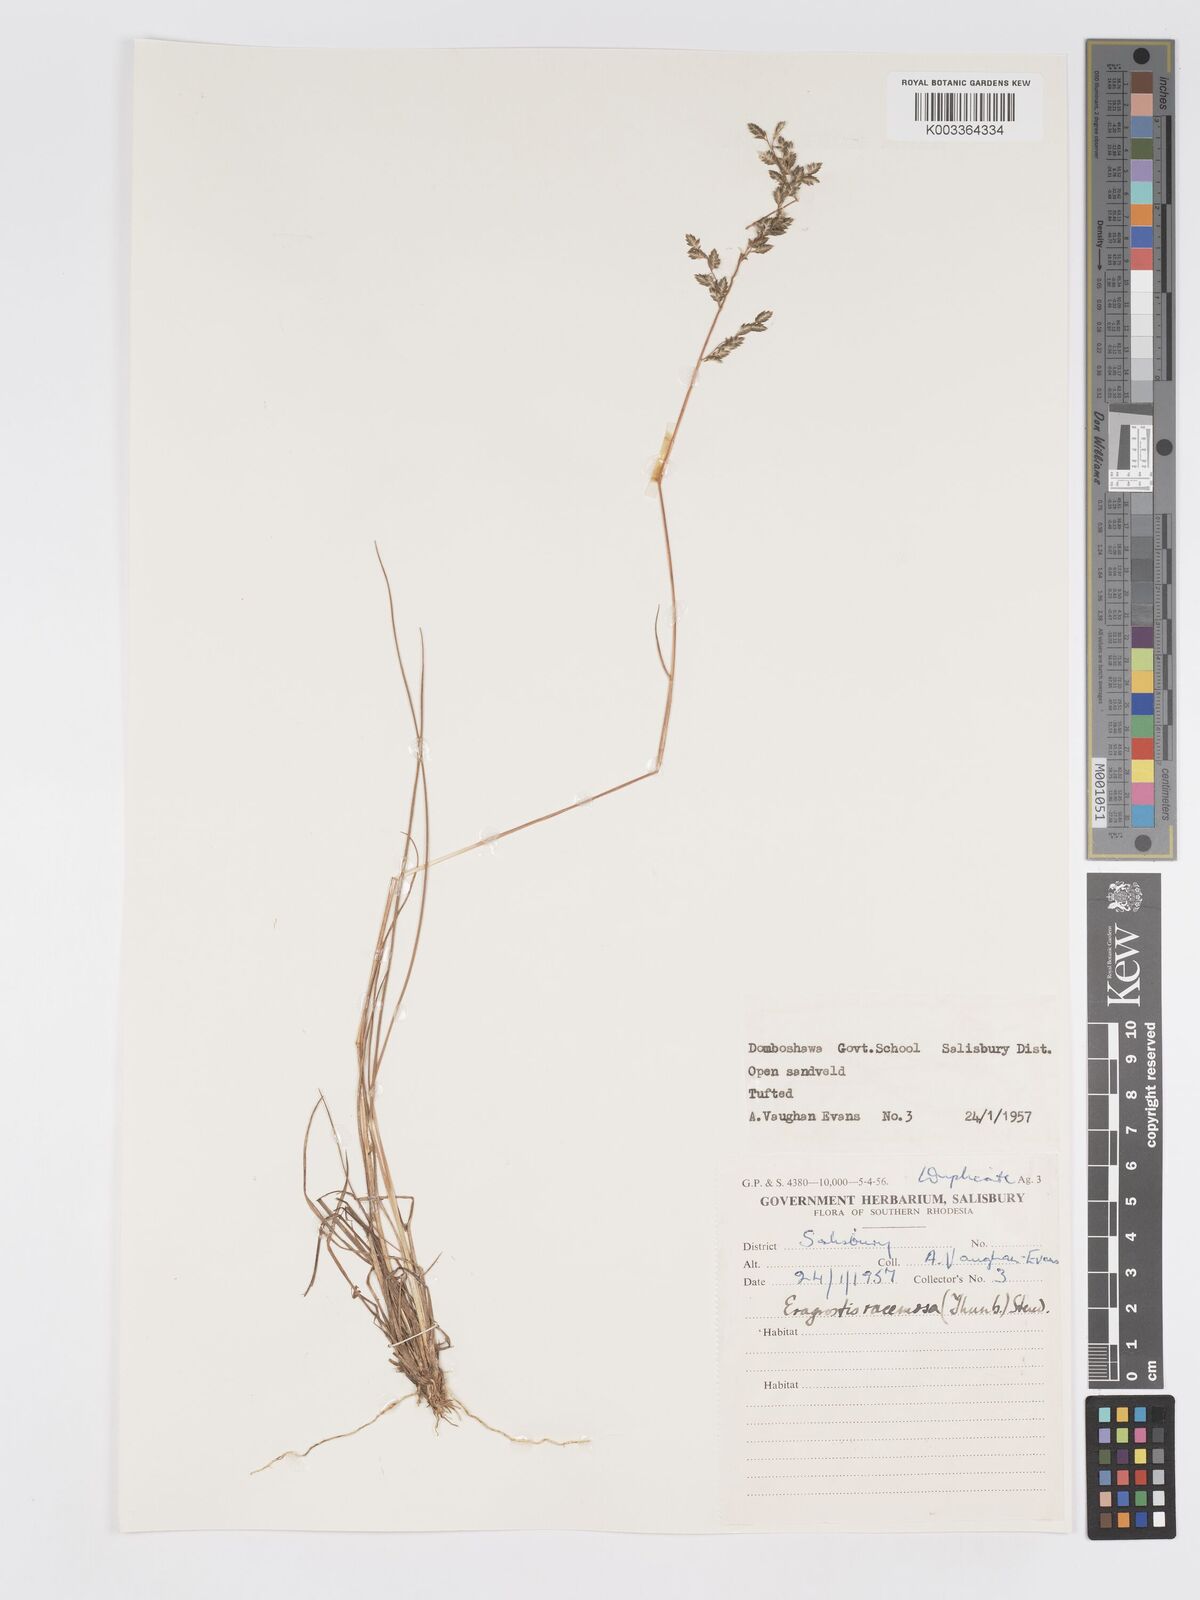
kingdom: Plantae
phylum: Tracheophyta
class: Liliopsida
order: Poales
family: Poaceae
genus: Eragrostis
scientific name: Eragrostis racemosa
